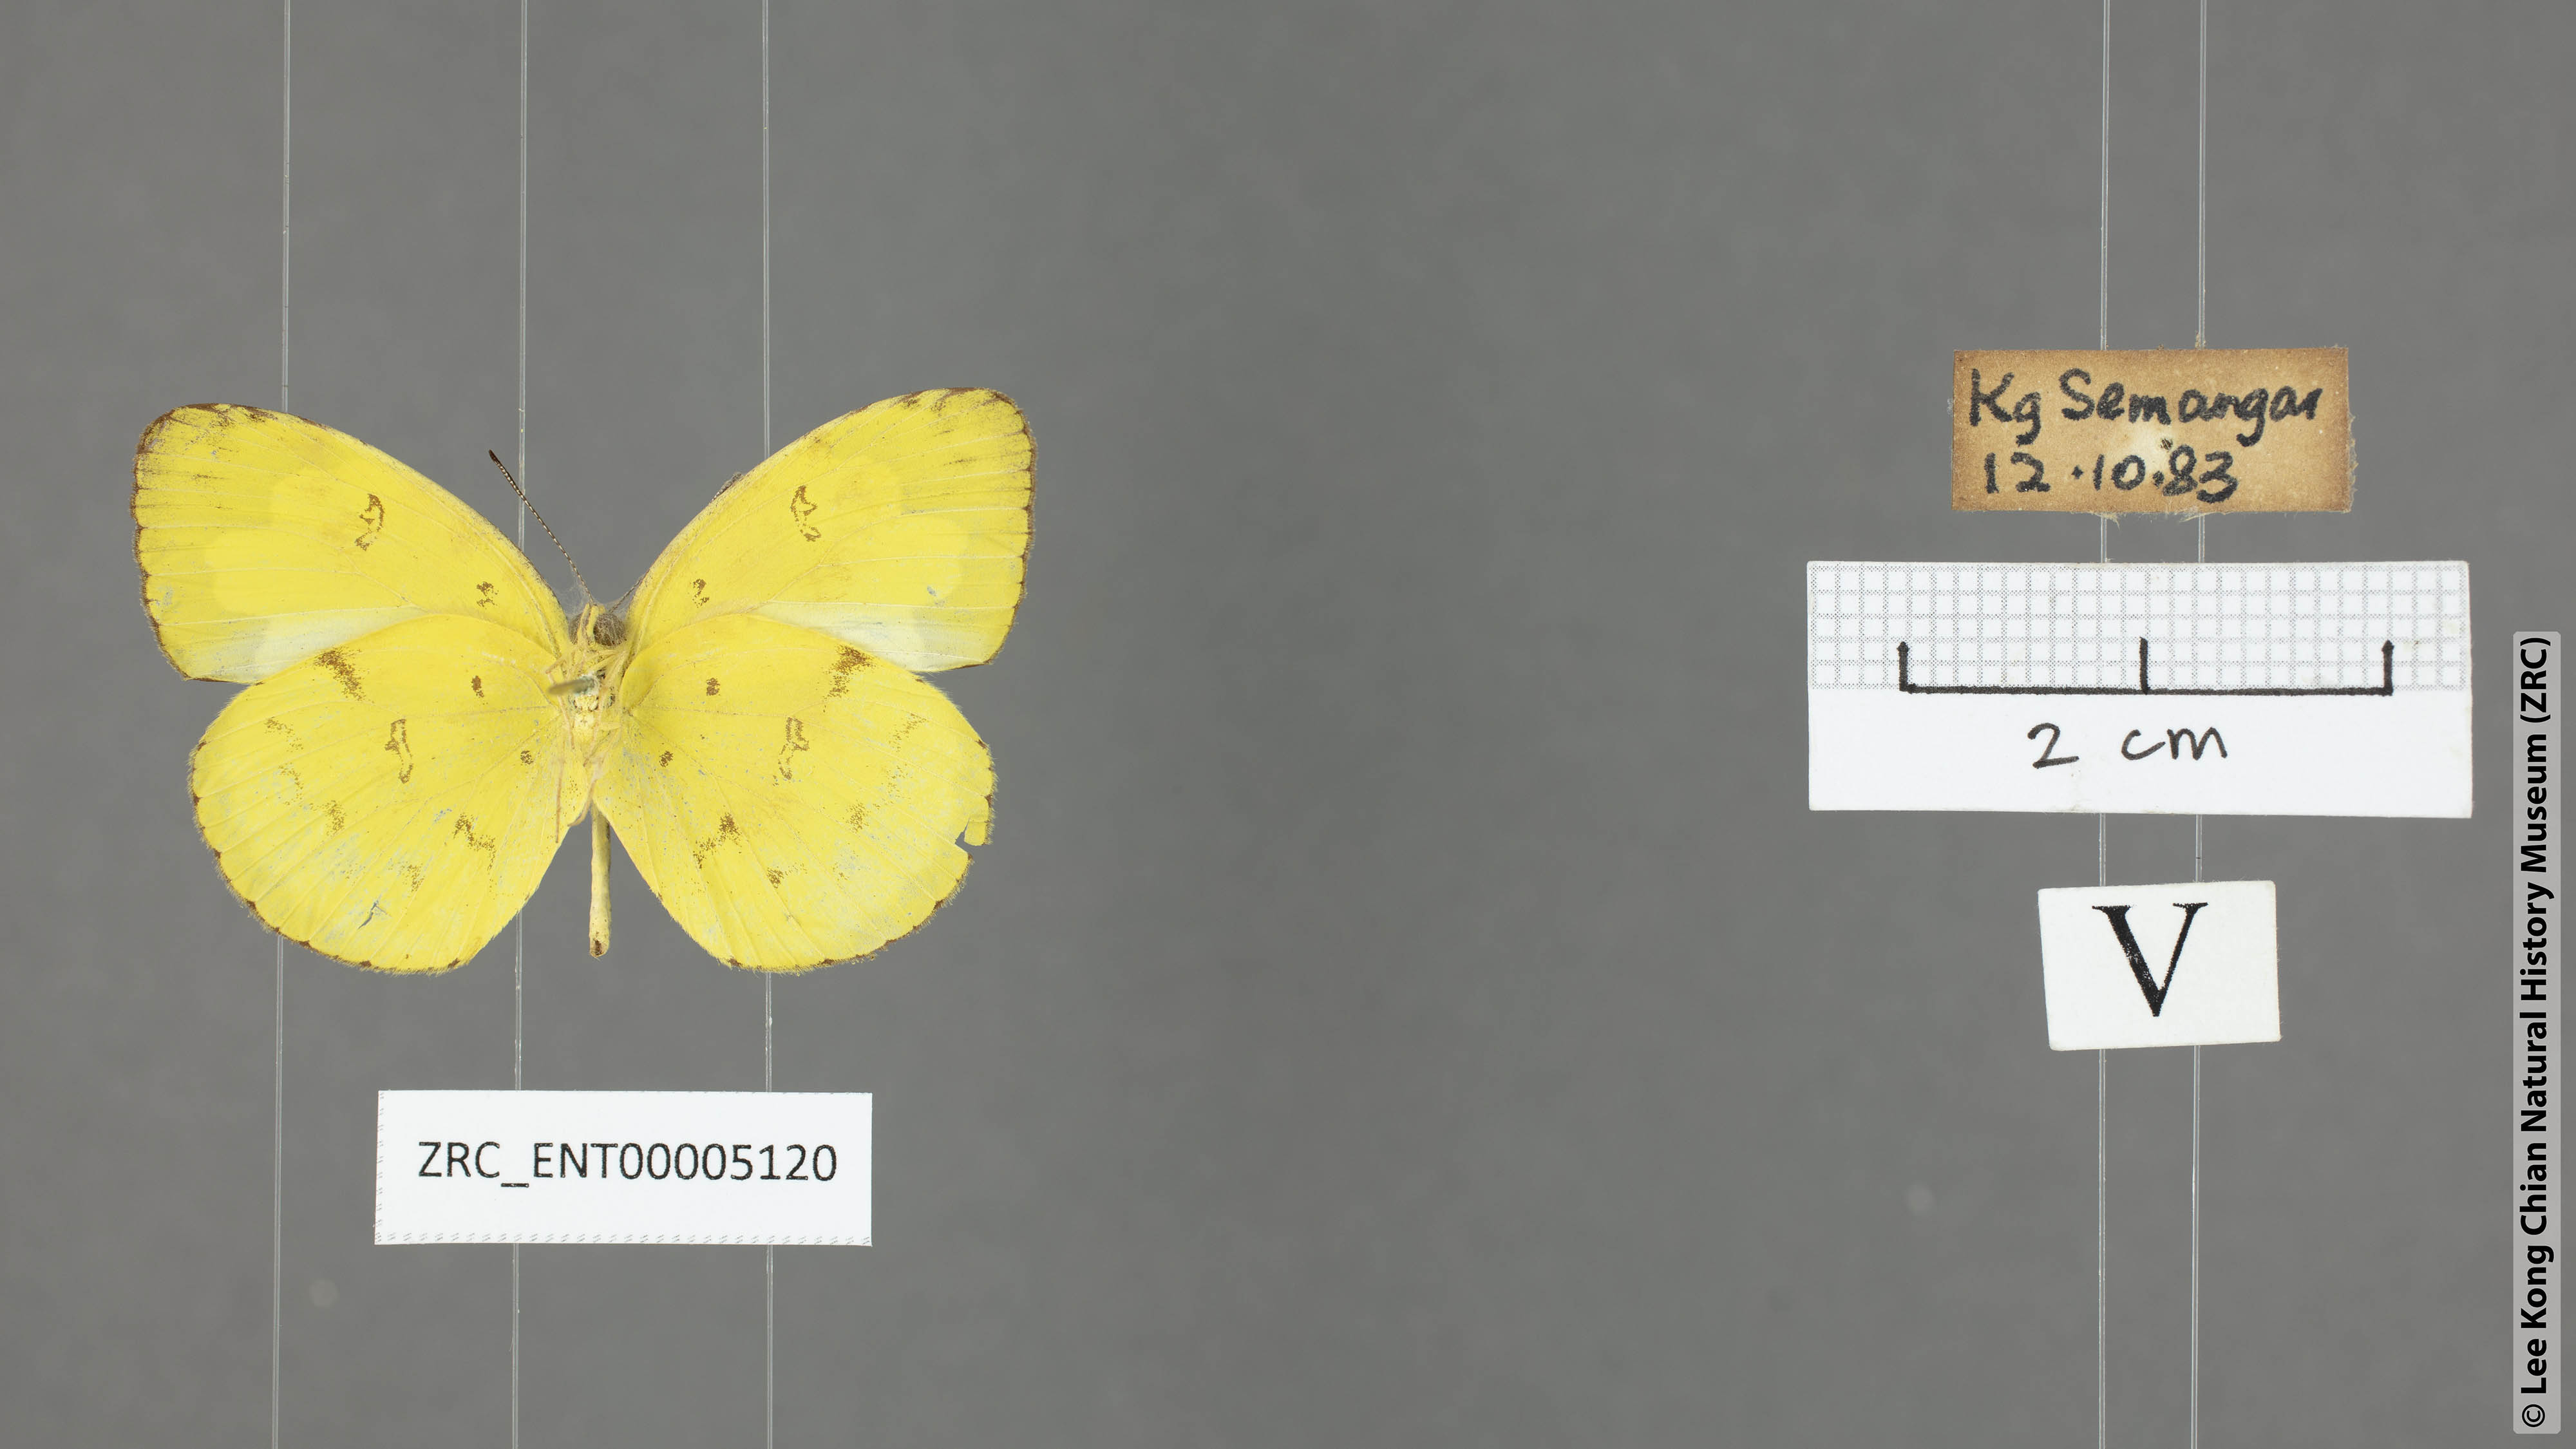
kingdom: Animalia
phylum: Arthropoda
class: Insecta
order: Lepidoptera
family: Pieridae
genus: Eurema
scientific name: Eurema andersoni
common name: One-spot yellow grass
